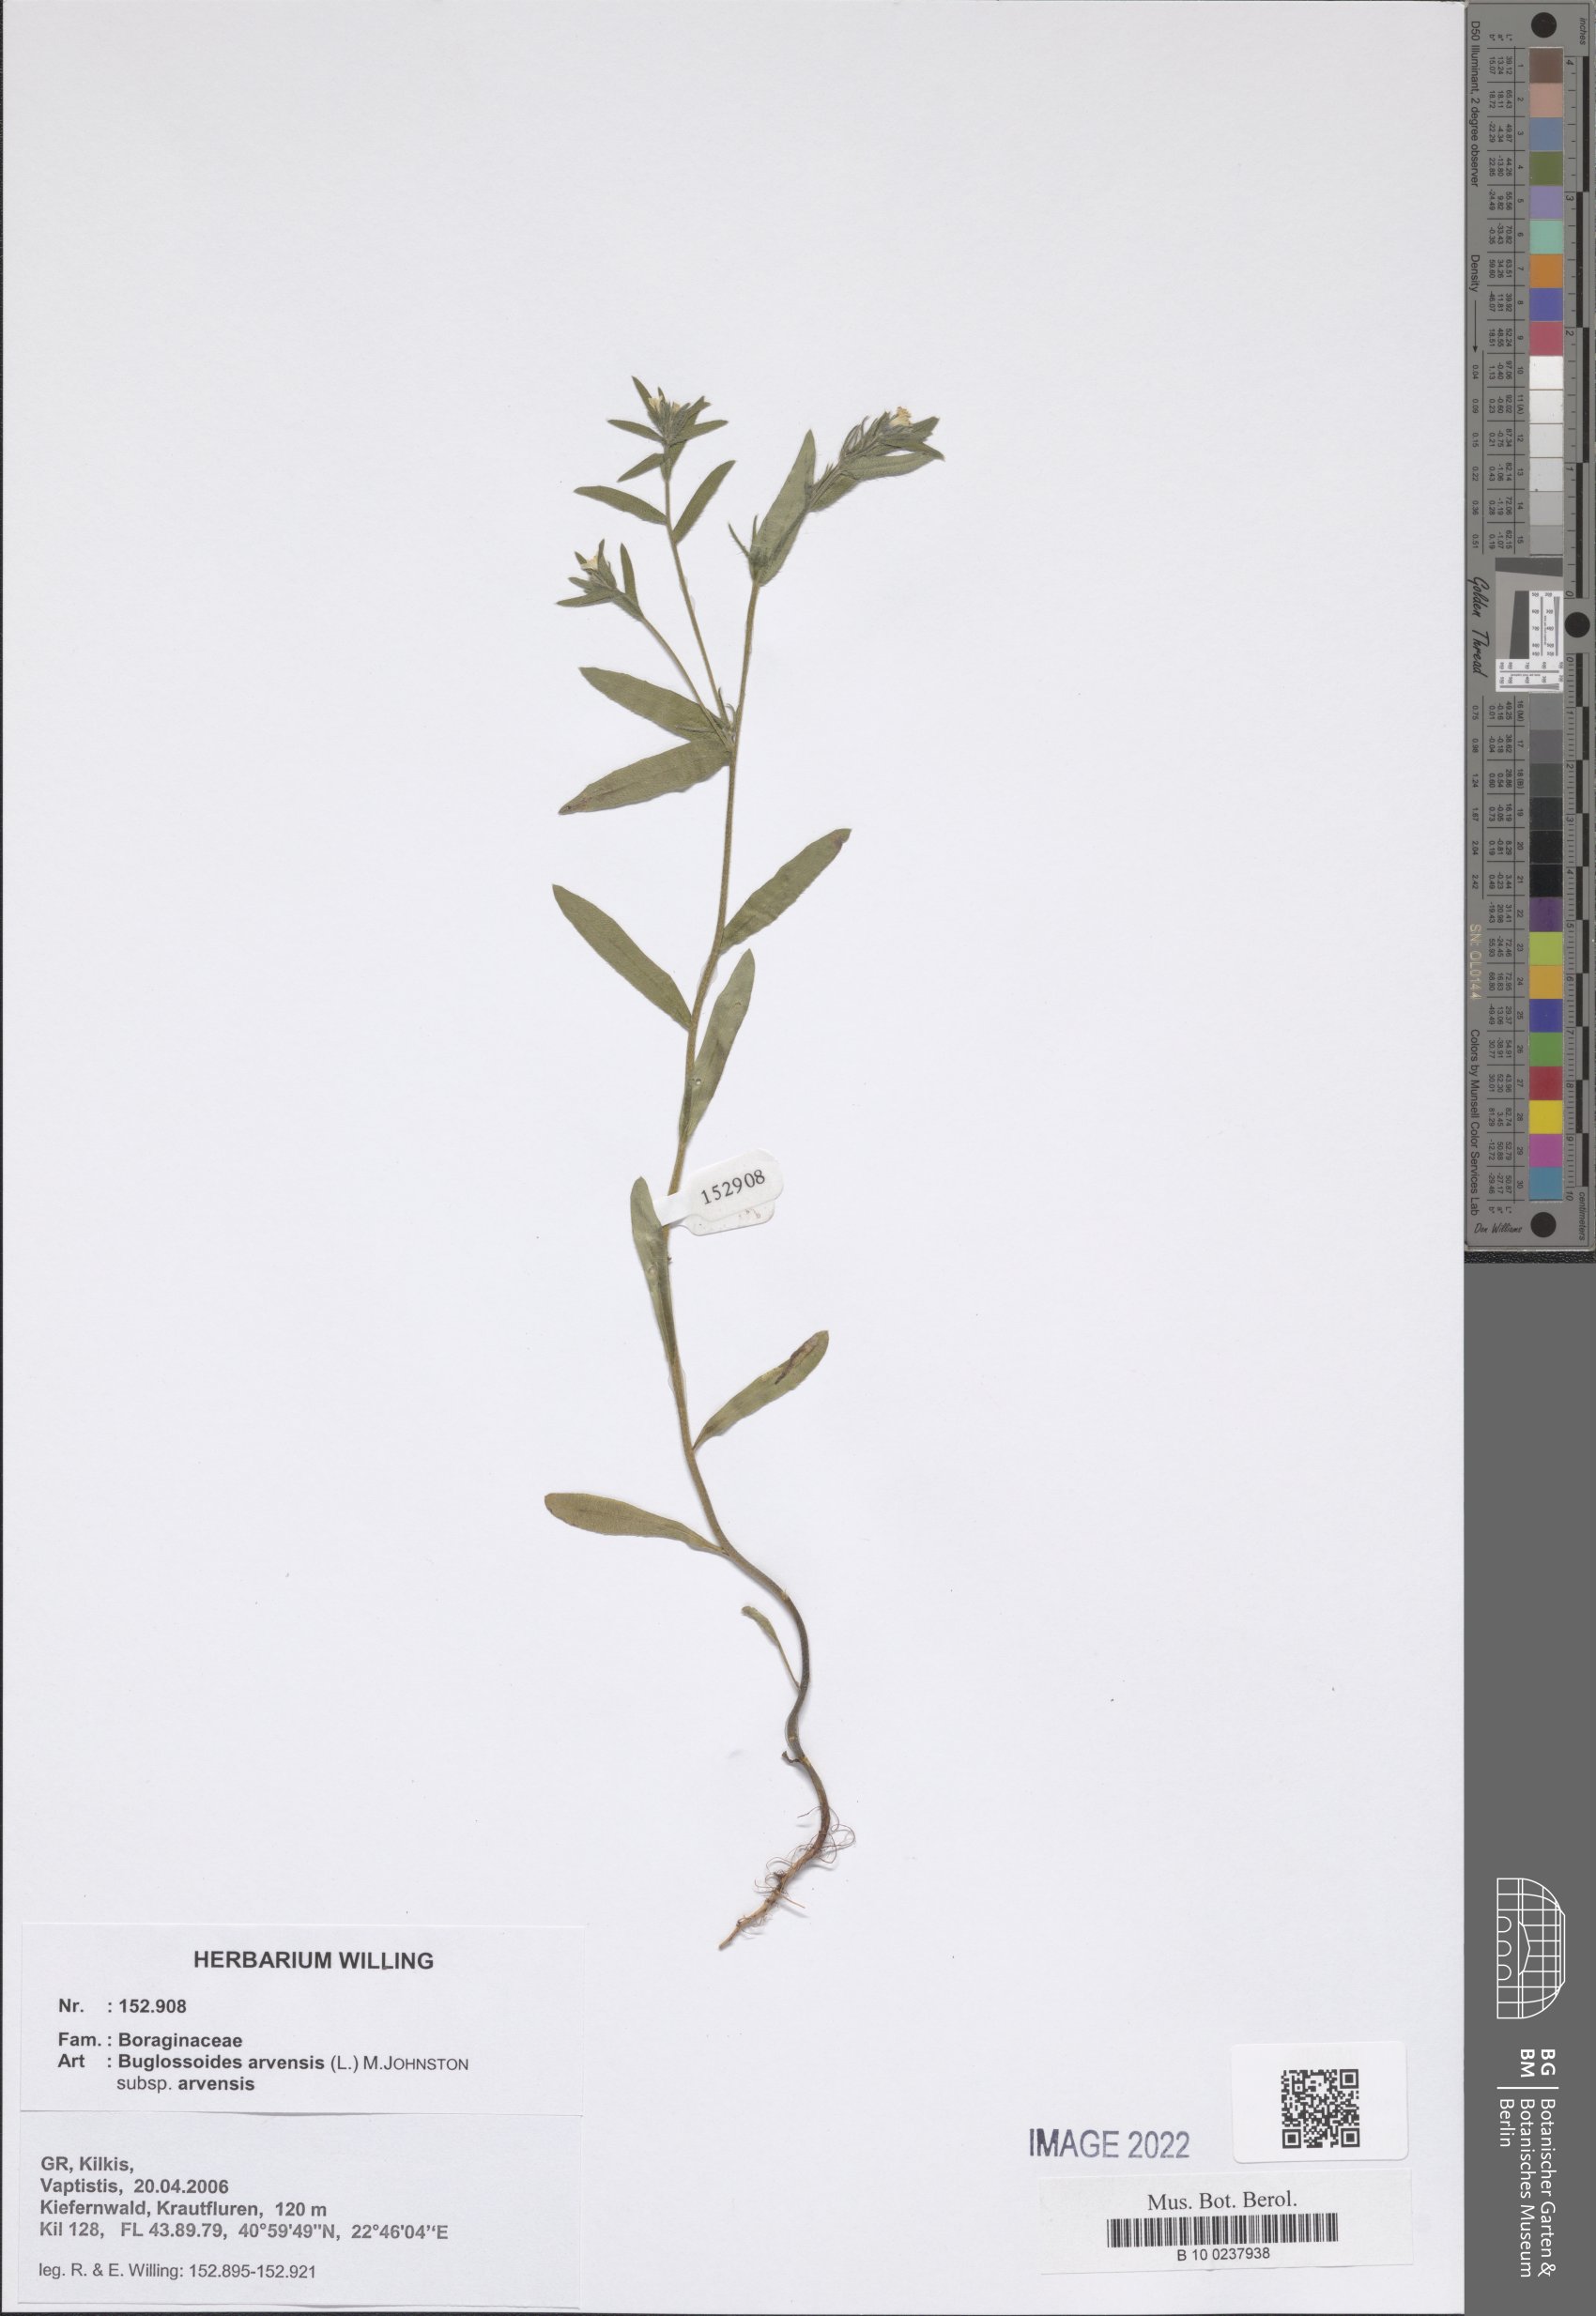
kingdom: Plantae
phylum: Tracheophyta
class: Magnoliopsida
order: Boraginales
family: Boraginaceae
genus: Buglossoides
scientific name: Buglossoides arvensis
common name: Corn gromwell
